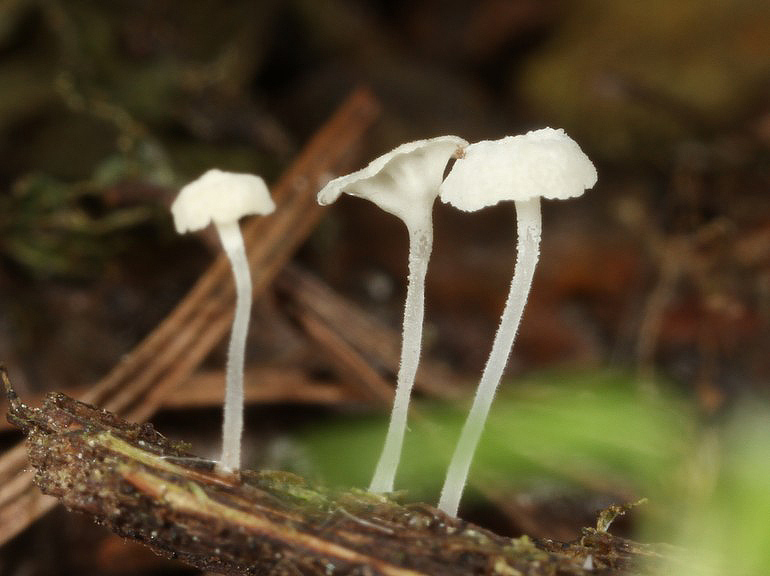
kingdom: Fungi
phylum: Basidiomycota
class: Agaricomycetes
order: Agaricales
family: Mycenaceae
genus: Hemimycena
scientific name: Hemimycena hirsuta
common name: håret huesvamp
